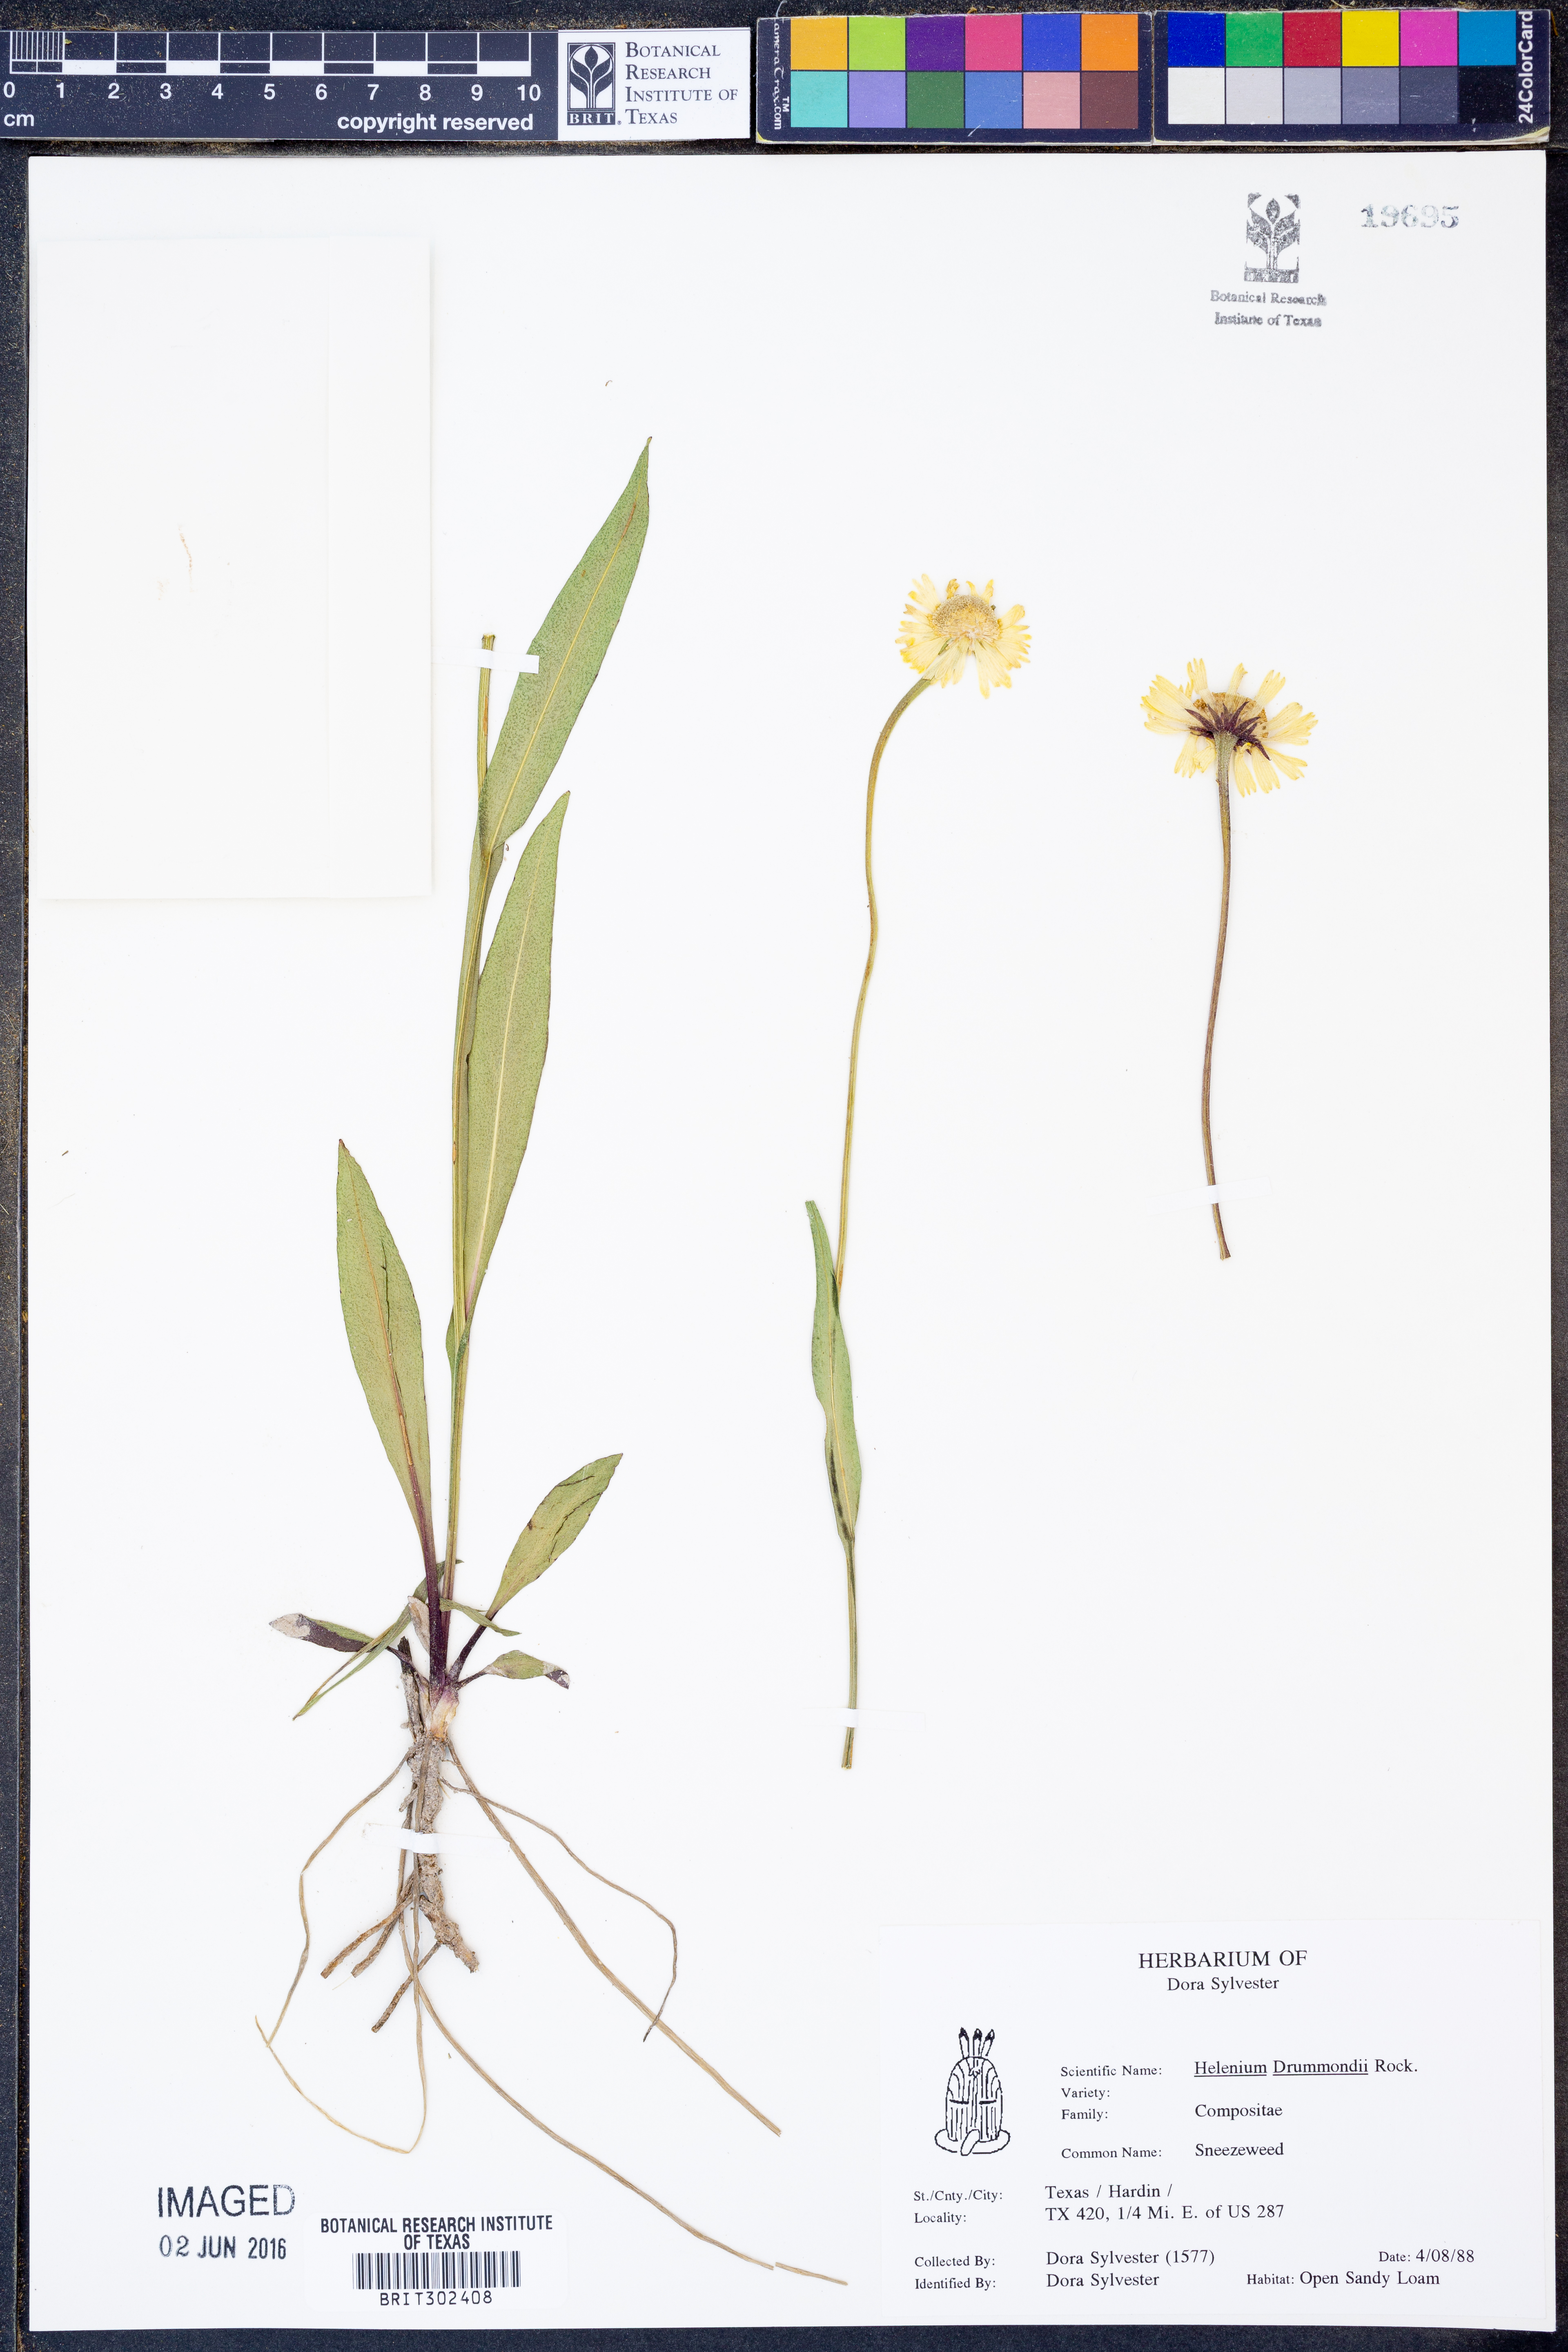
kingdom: Plantae
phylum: Tracheophyta
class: Magnoliopsida
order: Asterales
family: Asteraceae
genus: Helenium
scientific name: Helenium drummondii
